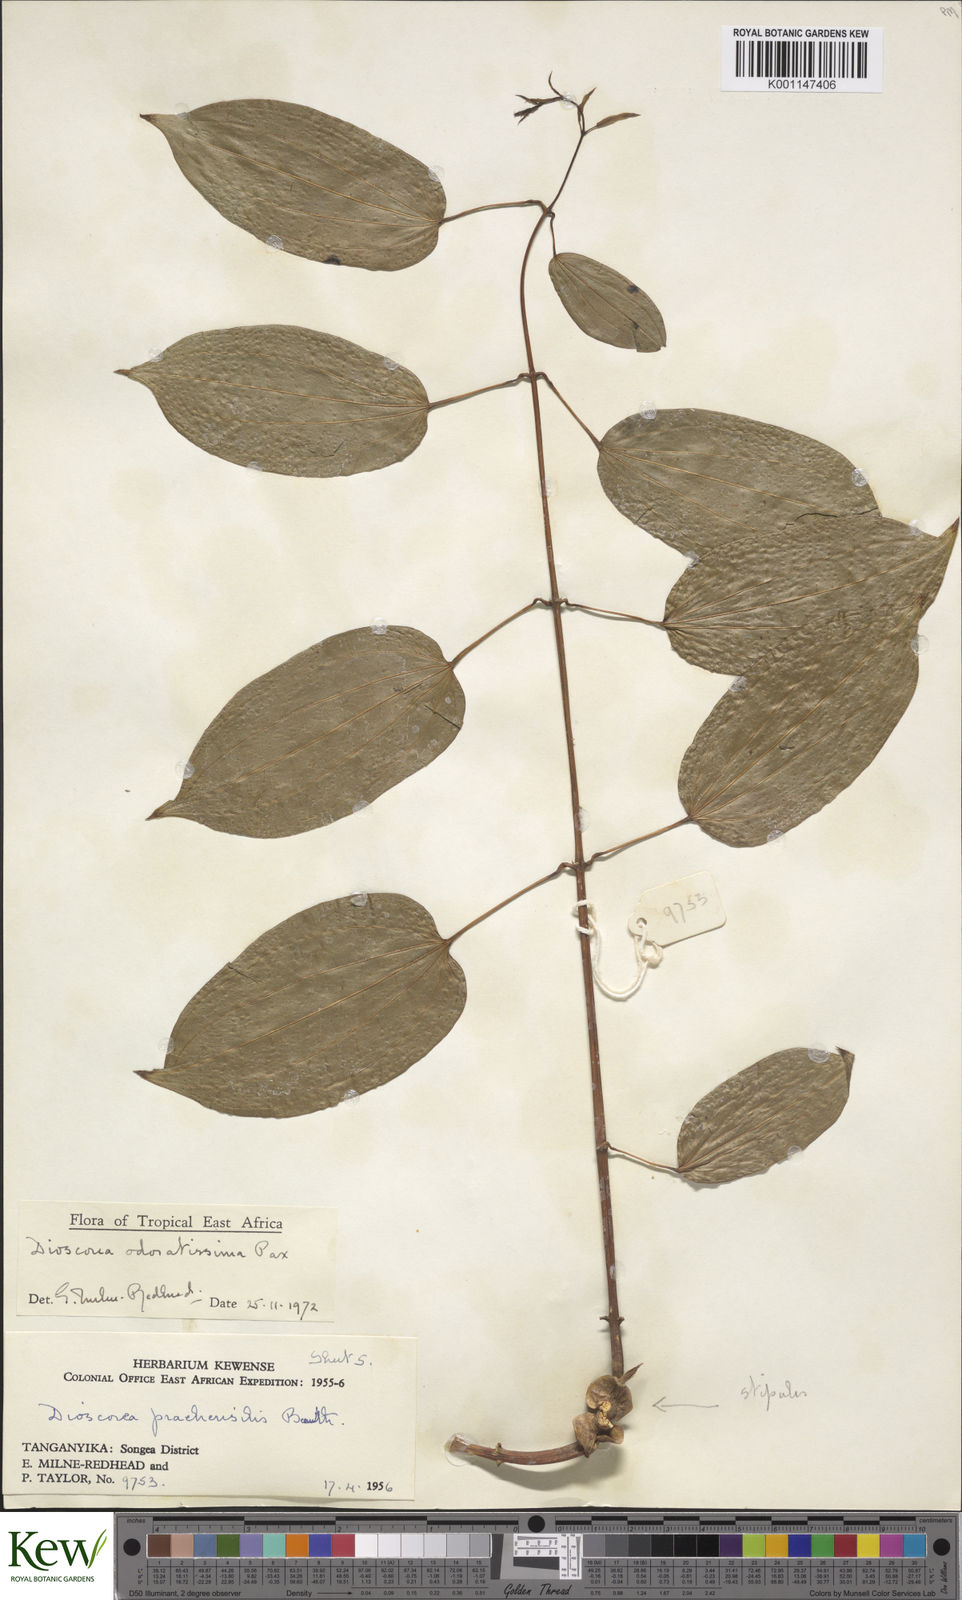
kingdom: Plantae
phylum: Tracheophyta
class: Liliopsida
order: Dioscoreales
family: Dioscoreaceae
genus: Dioscorea
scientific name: Dioscorea praehensilis
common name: Bush yam
